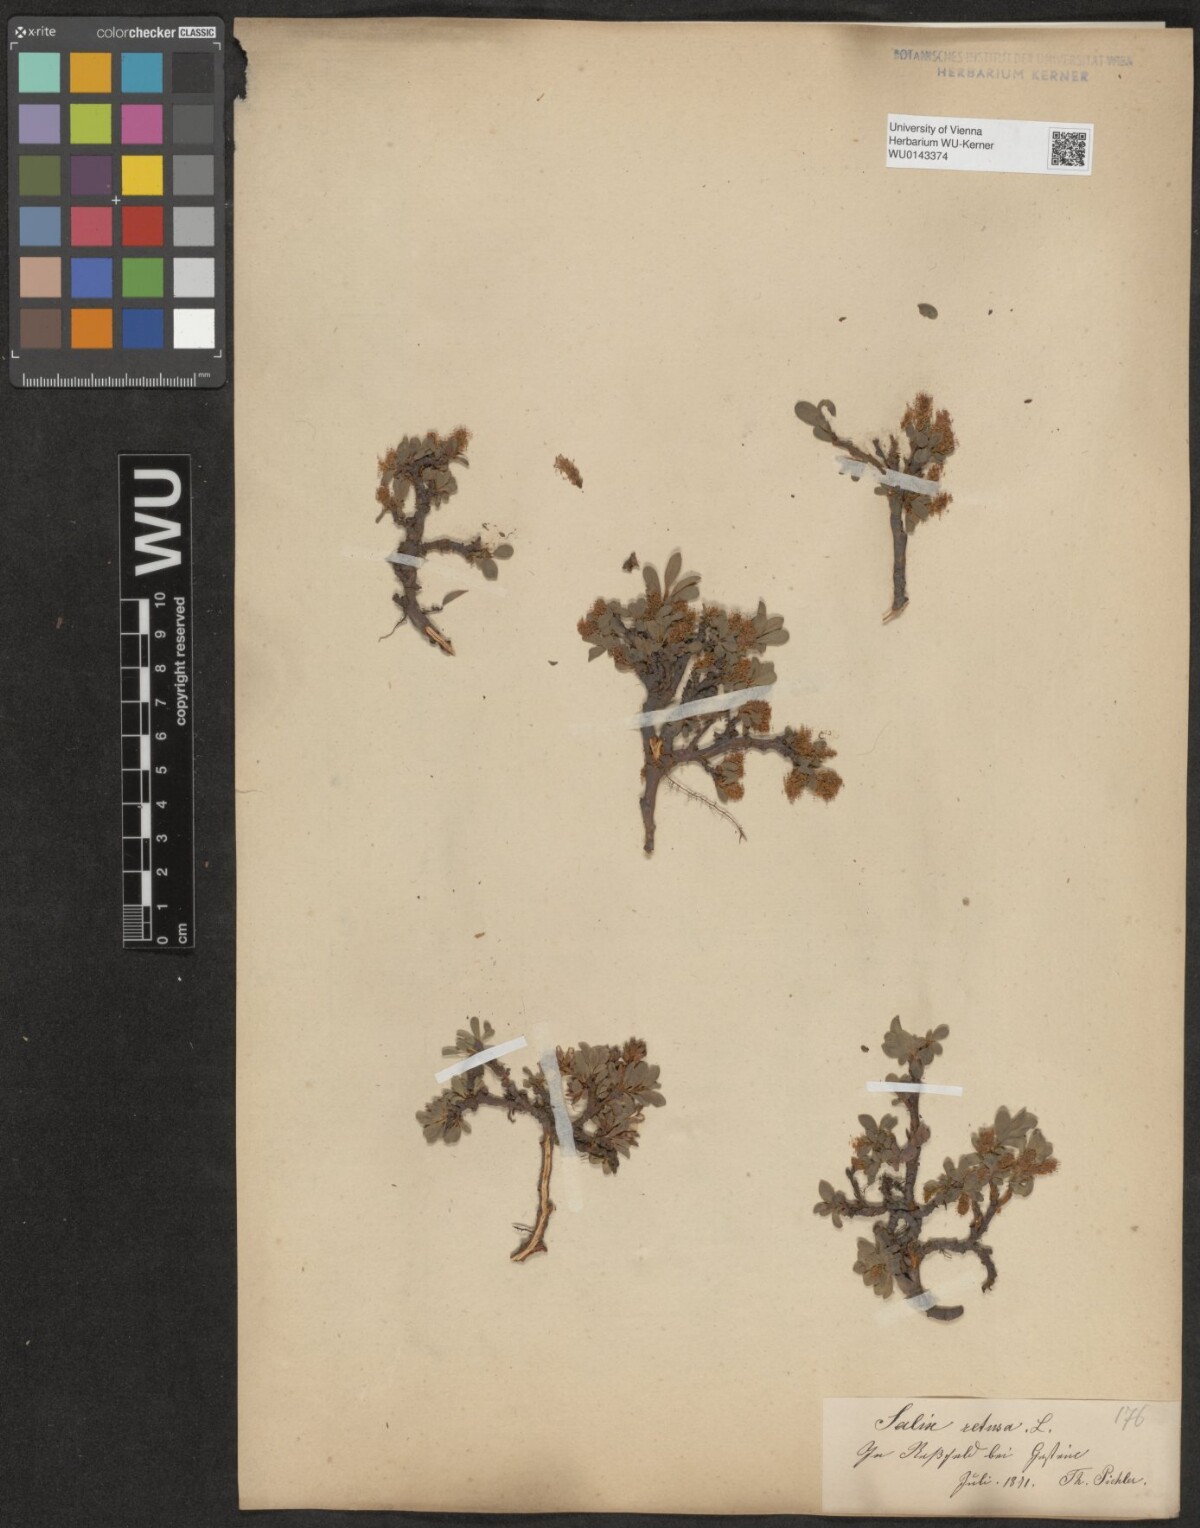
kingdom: Plantae
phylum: Tracheophyta
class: Magnoliopsida
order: Malpighiales
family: Salicaceae
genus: Salix
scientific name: Salix retusa
